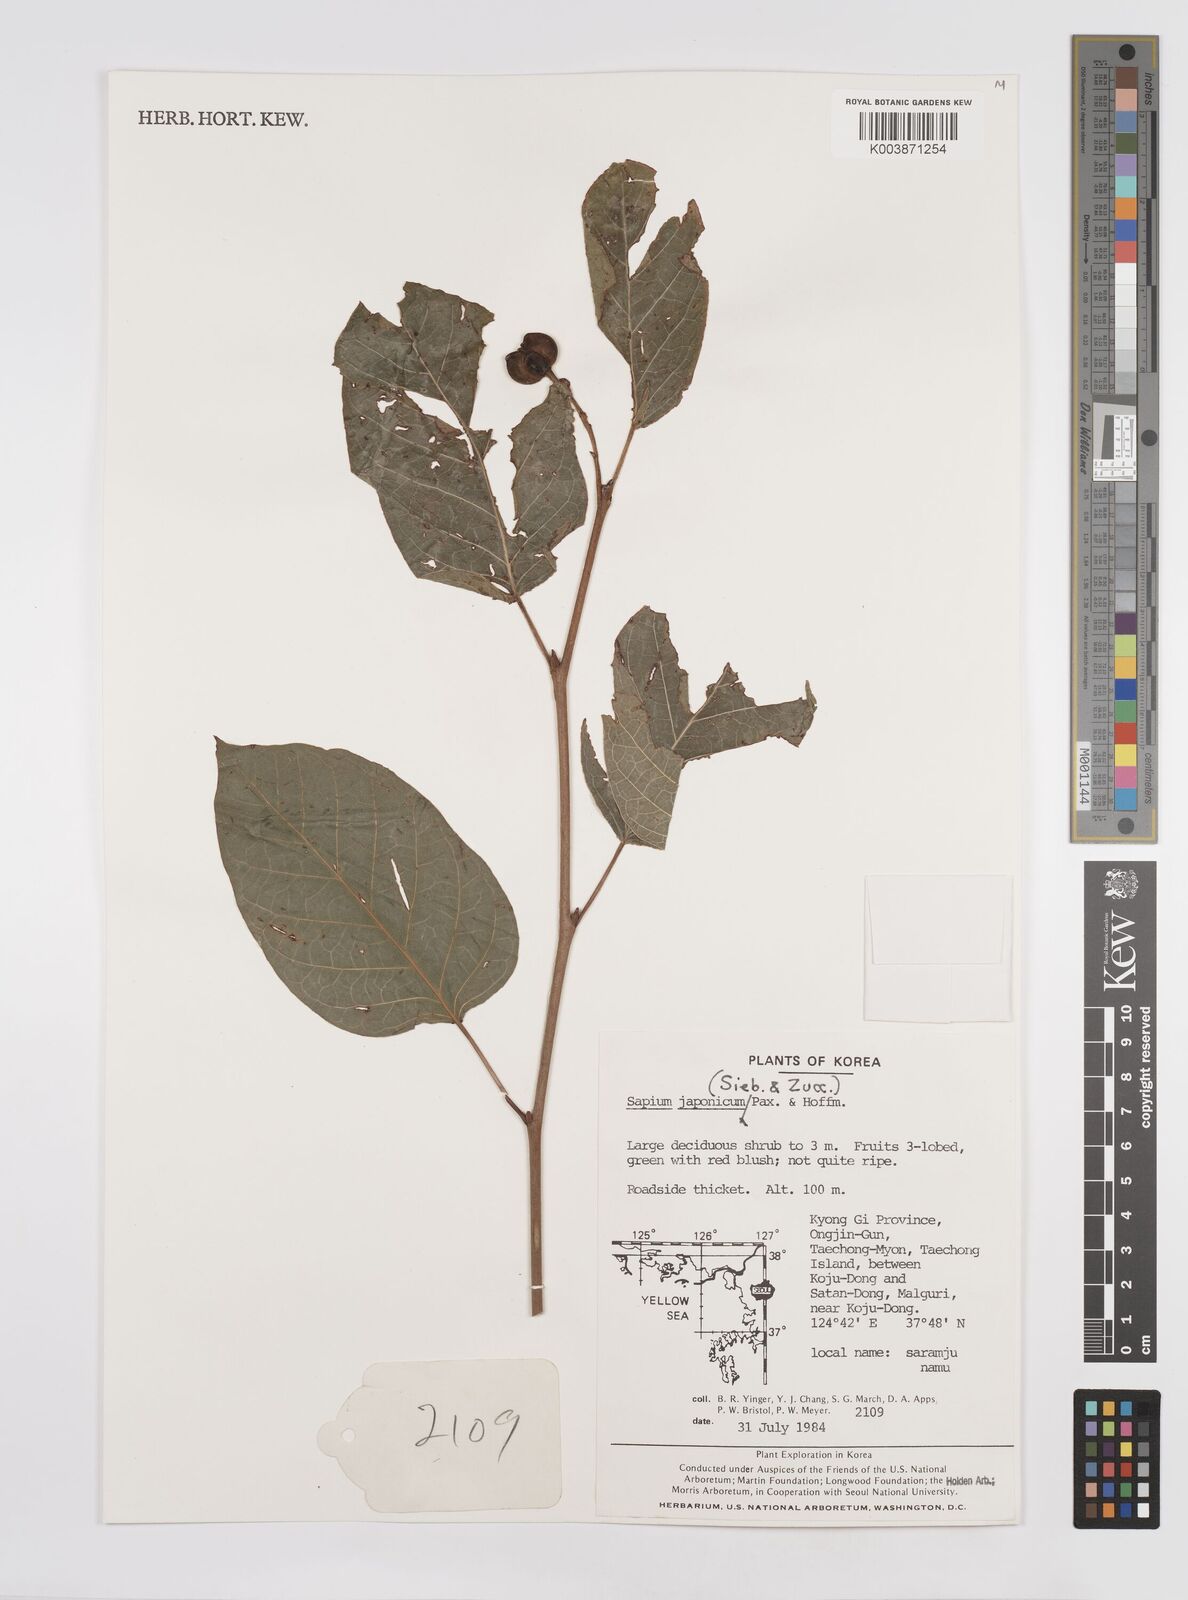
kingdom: Plantae
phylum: Tracheophyta
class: Magnoliopsida
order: Malpighiales
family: Euphorbiaceae
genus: Neoshirakia
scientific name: Neoshirakia japonica
